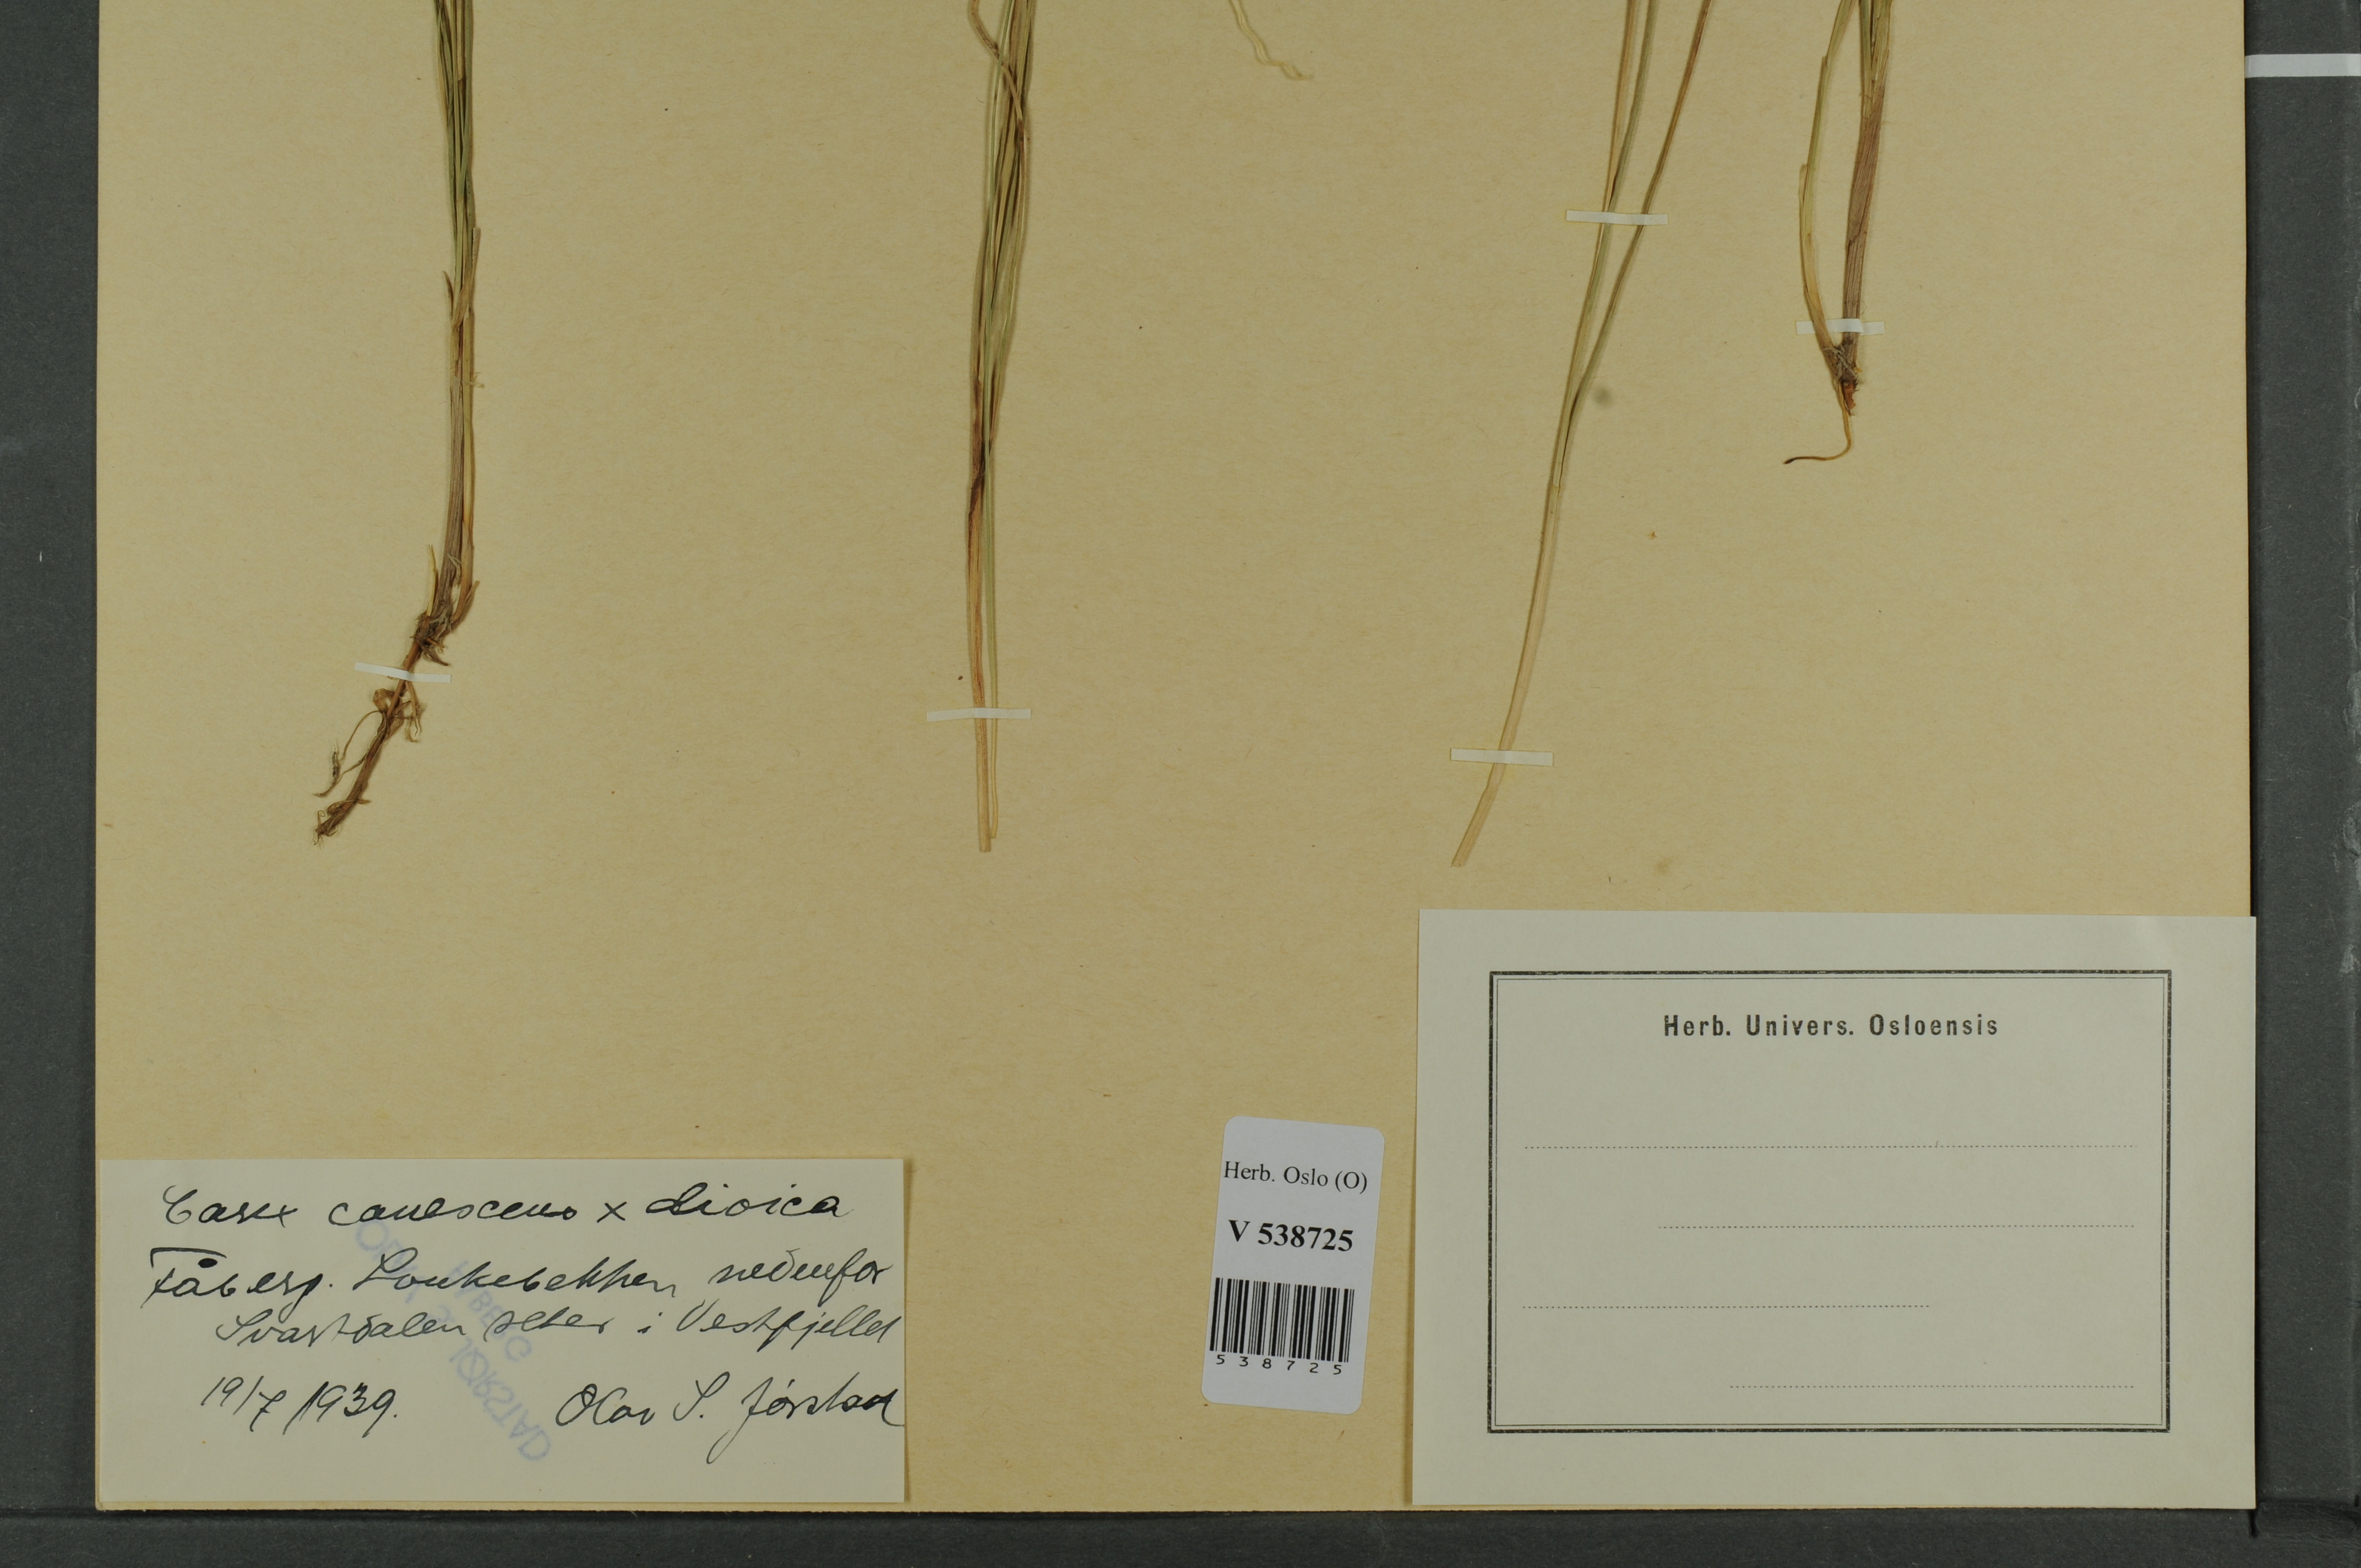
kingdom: Plantae
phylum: Tracheophyta
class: Liliopsida
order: Poales
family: Cyperaceae
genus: Carex
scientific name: Carex
